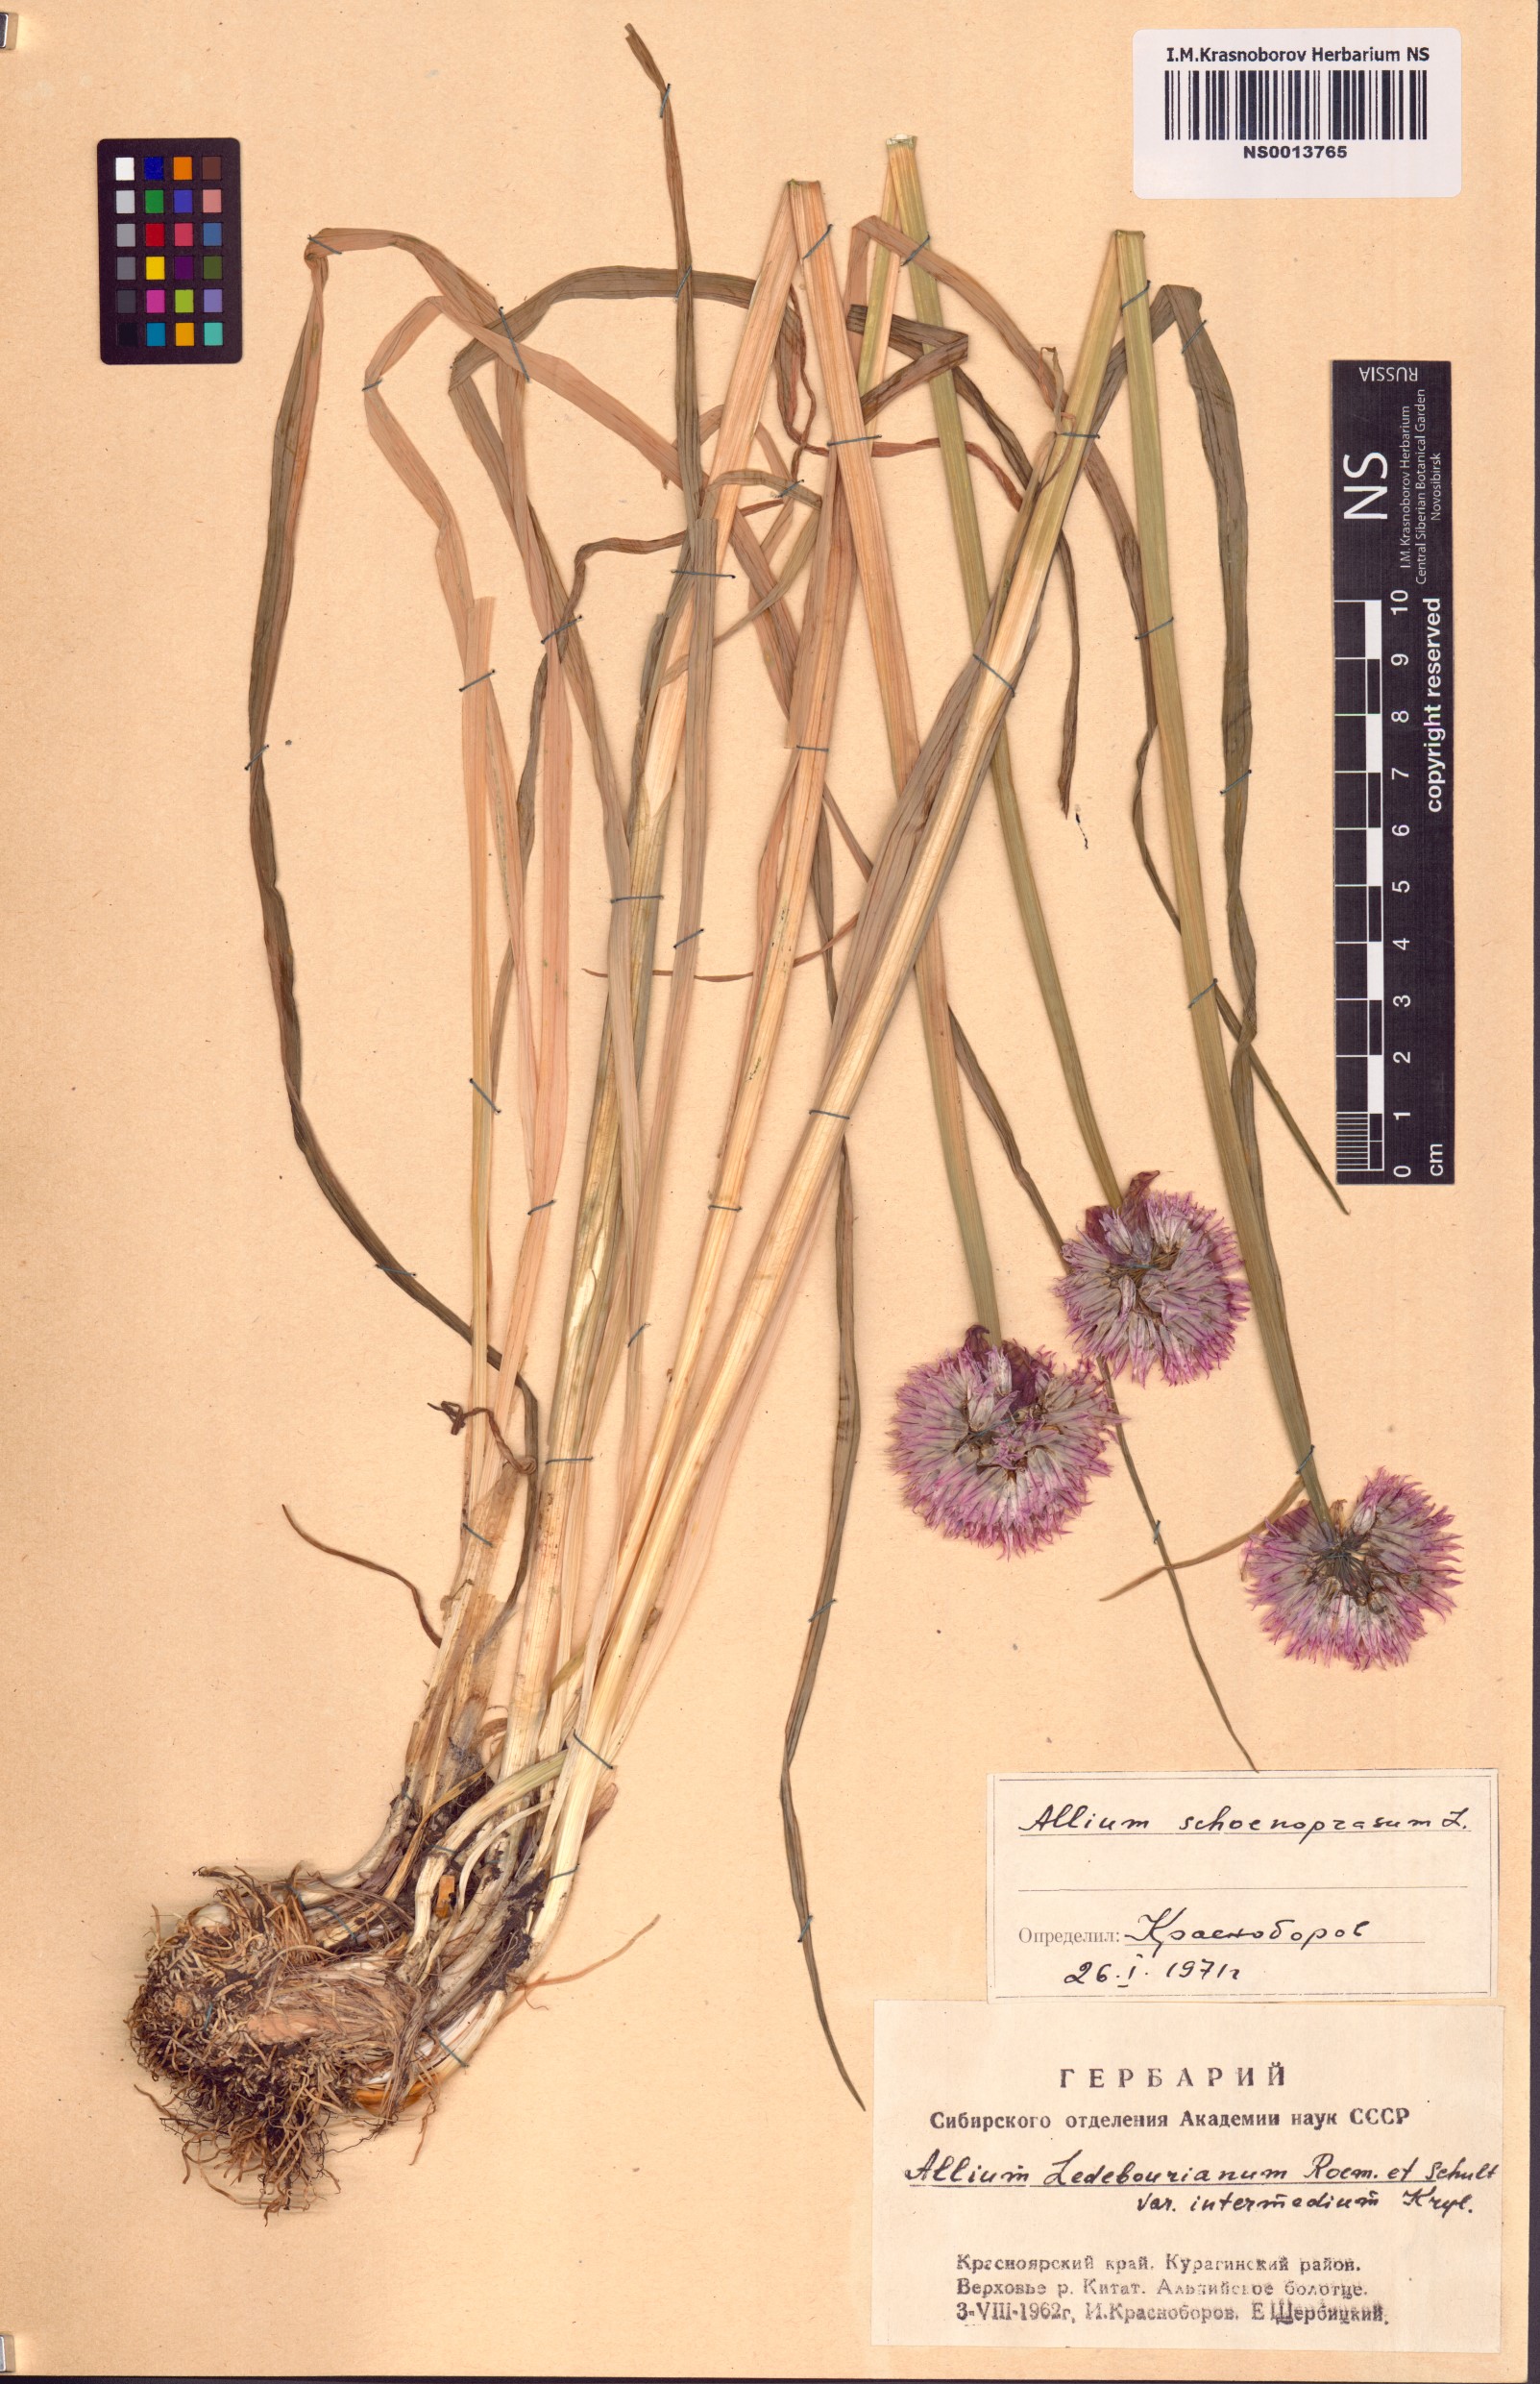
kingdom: Plantae
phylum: Tracheophyta
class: Liliopsida
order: Asparagales
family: Amaryllidaceae
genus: Allium
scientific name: Allium schoenoprasum
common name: Chives
